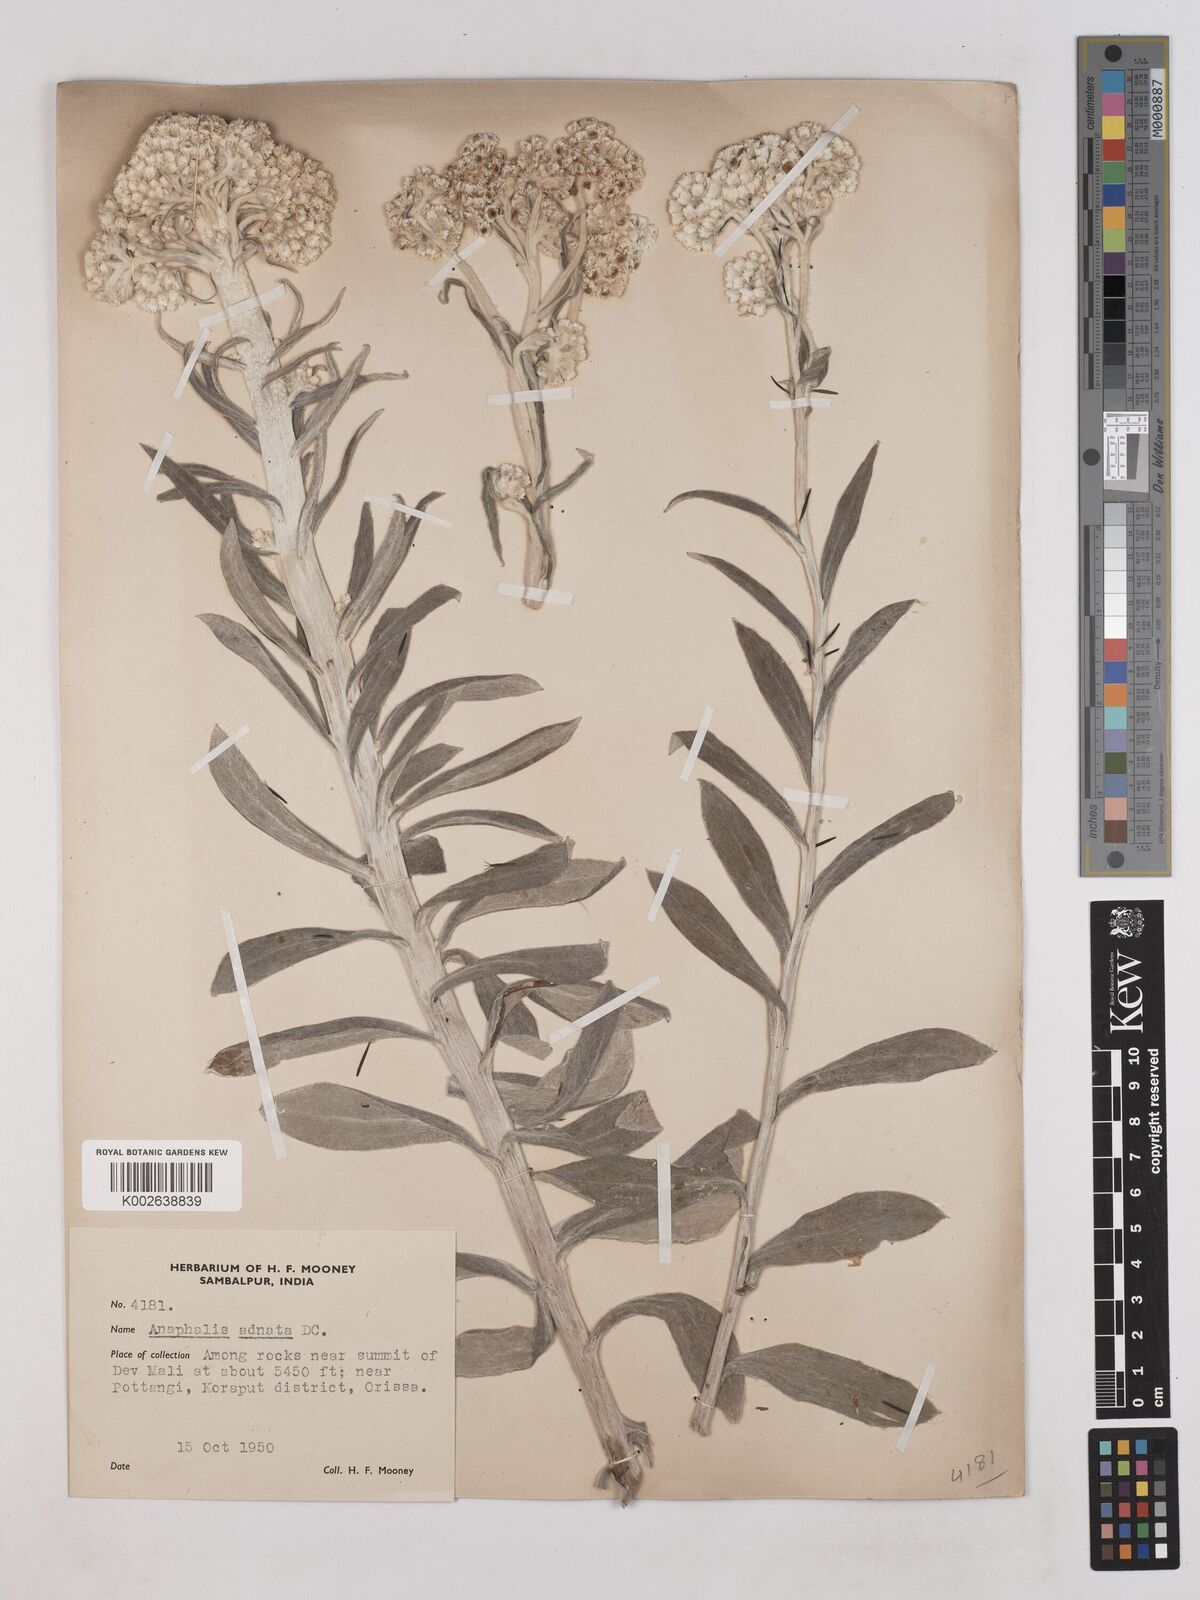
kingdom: Plantae
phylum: Tracheophyta
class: Magnoliopsida
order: Asterales
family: Asteraceae
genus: Pseudognaphalium
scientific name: Pseudognaphalium adnatum
